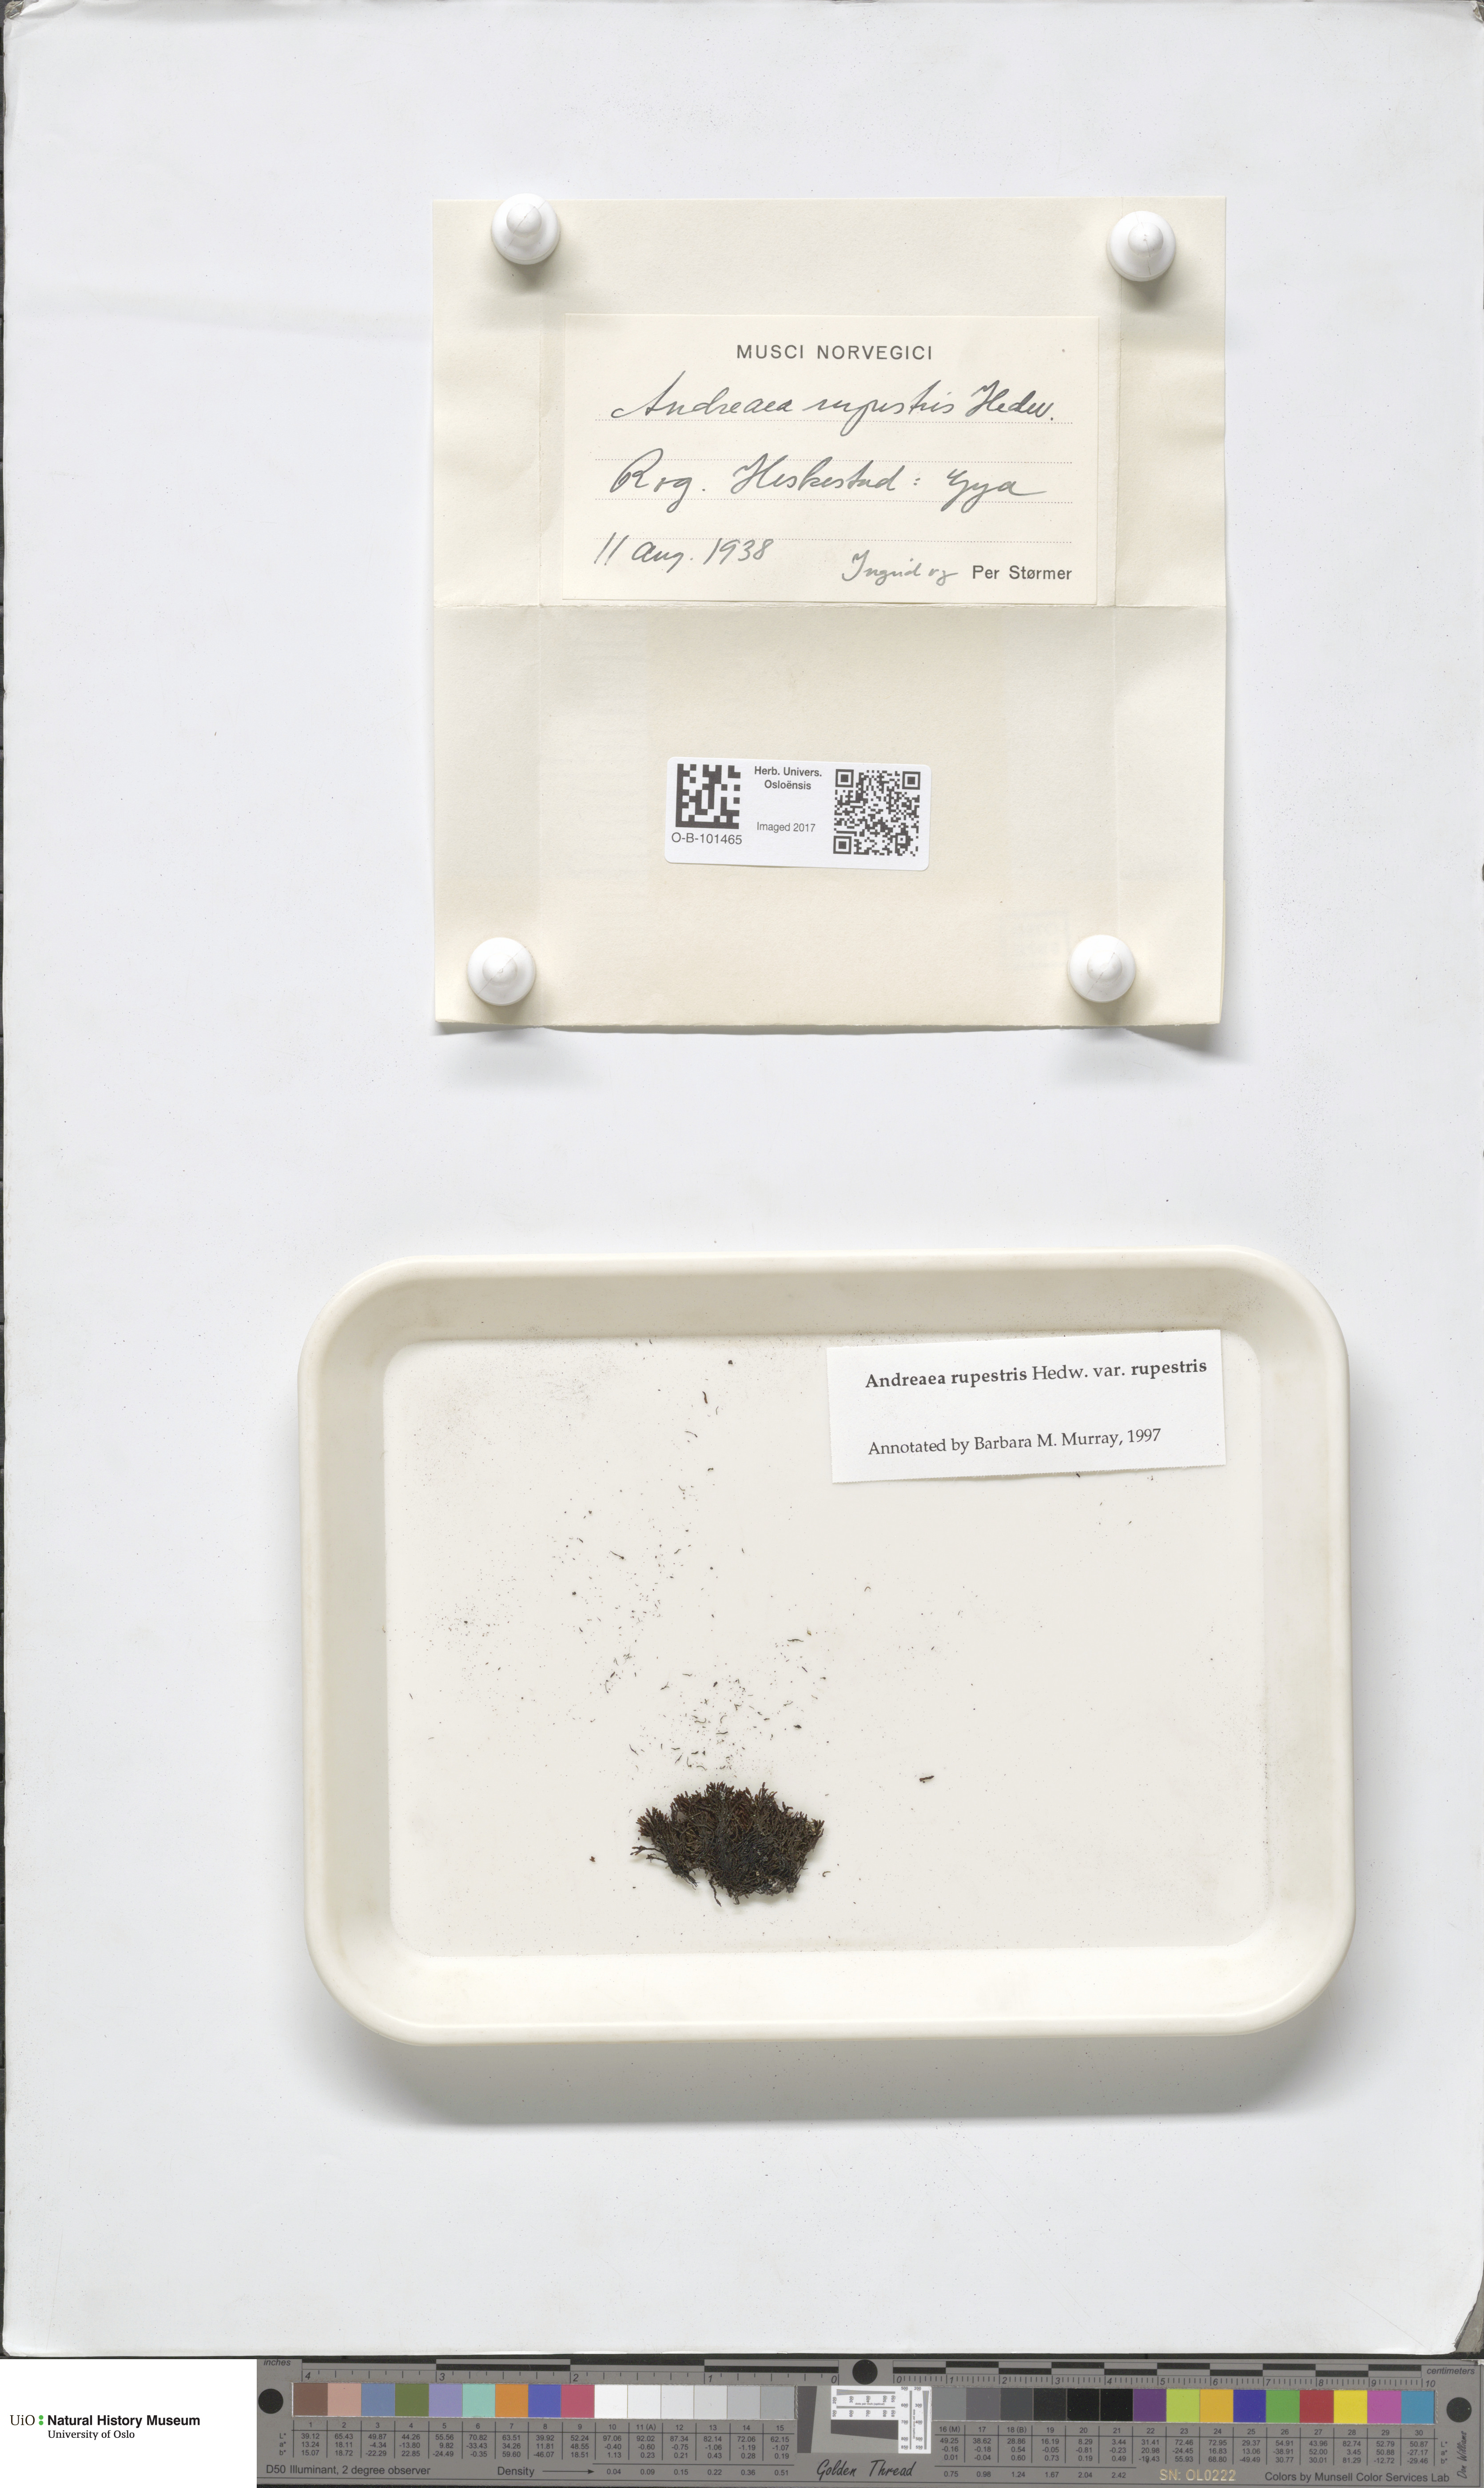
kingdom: Plantae
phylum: Bryophyta
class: Andreaeopsida
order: Andreaeales
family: Andreaeaceae
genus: Andreaea
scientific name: Andreaea rupestris
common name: Black rock moss
